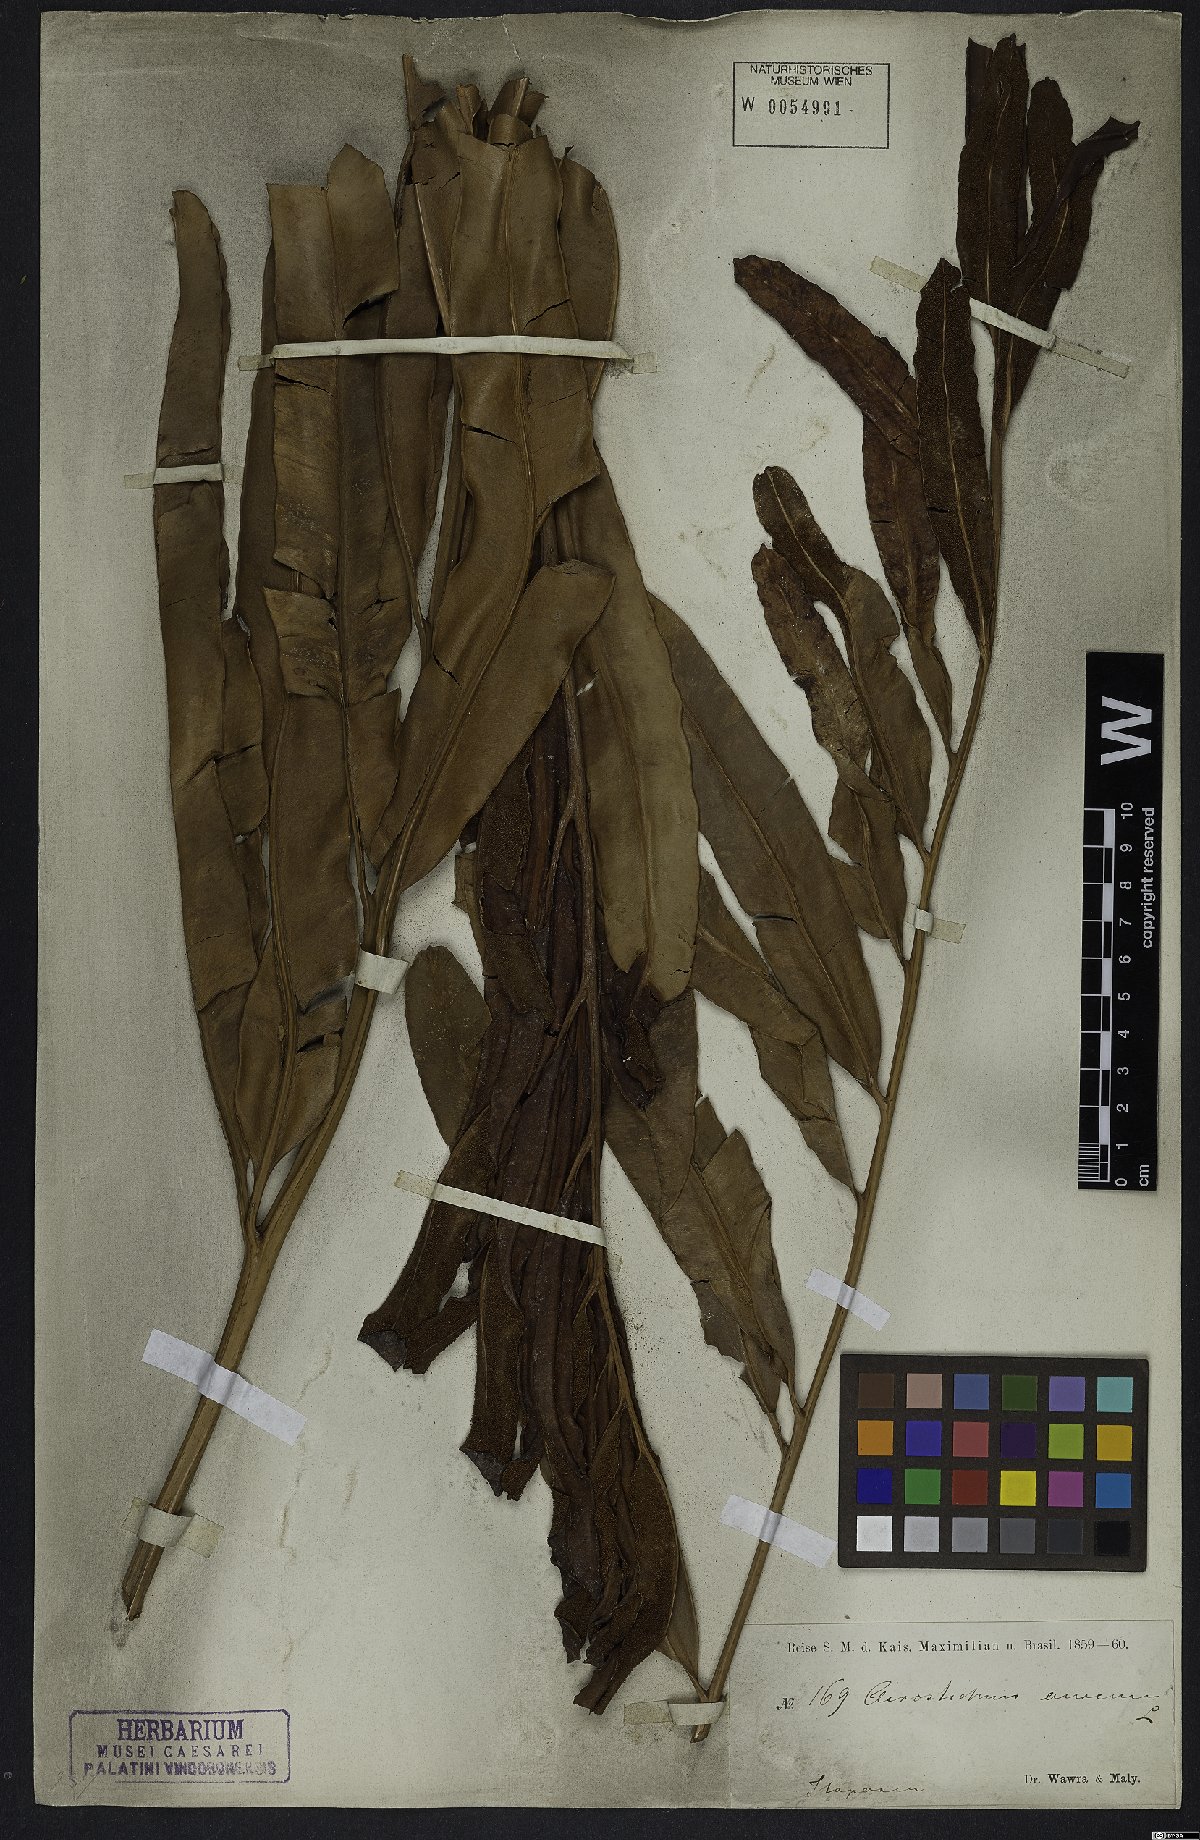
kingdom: Plantae
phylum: Tracheophyta
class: Polypodiopsida
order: Polypodiales
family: Pteridaceae
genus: Acrostichum
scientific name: Acrostichum aureum
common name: Leather fern
